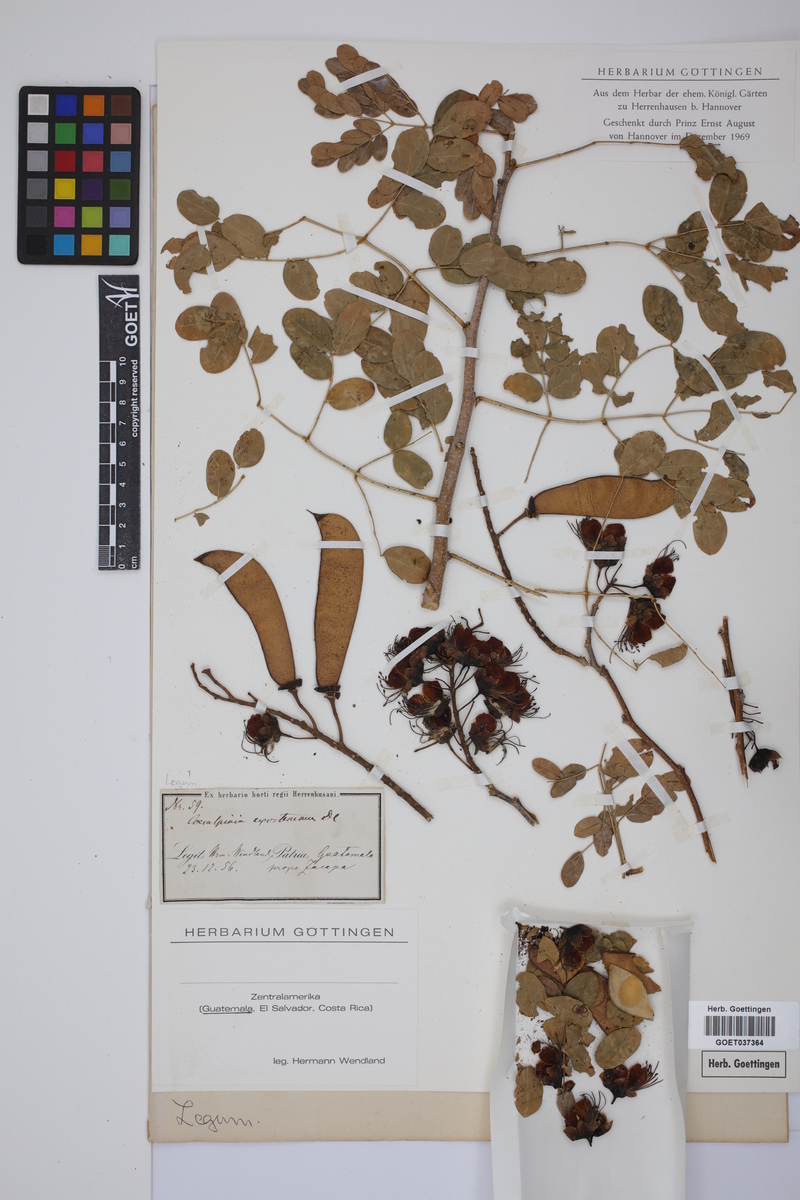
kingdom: Plantae
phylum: Tracheophyta
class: Magnoliopsida
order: Fabales
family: Fabaceae
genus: Erythrostemon
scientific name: Erythrostemon exostemma
